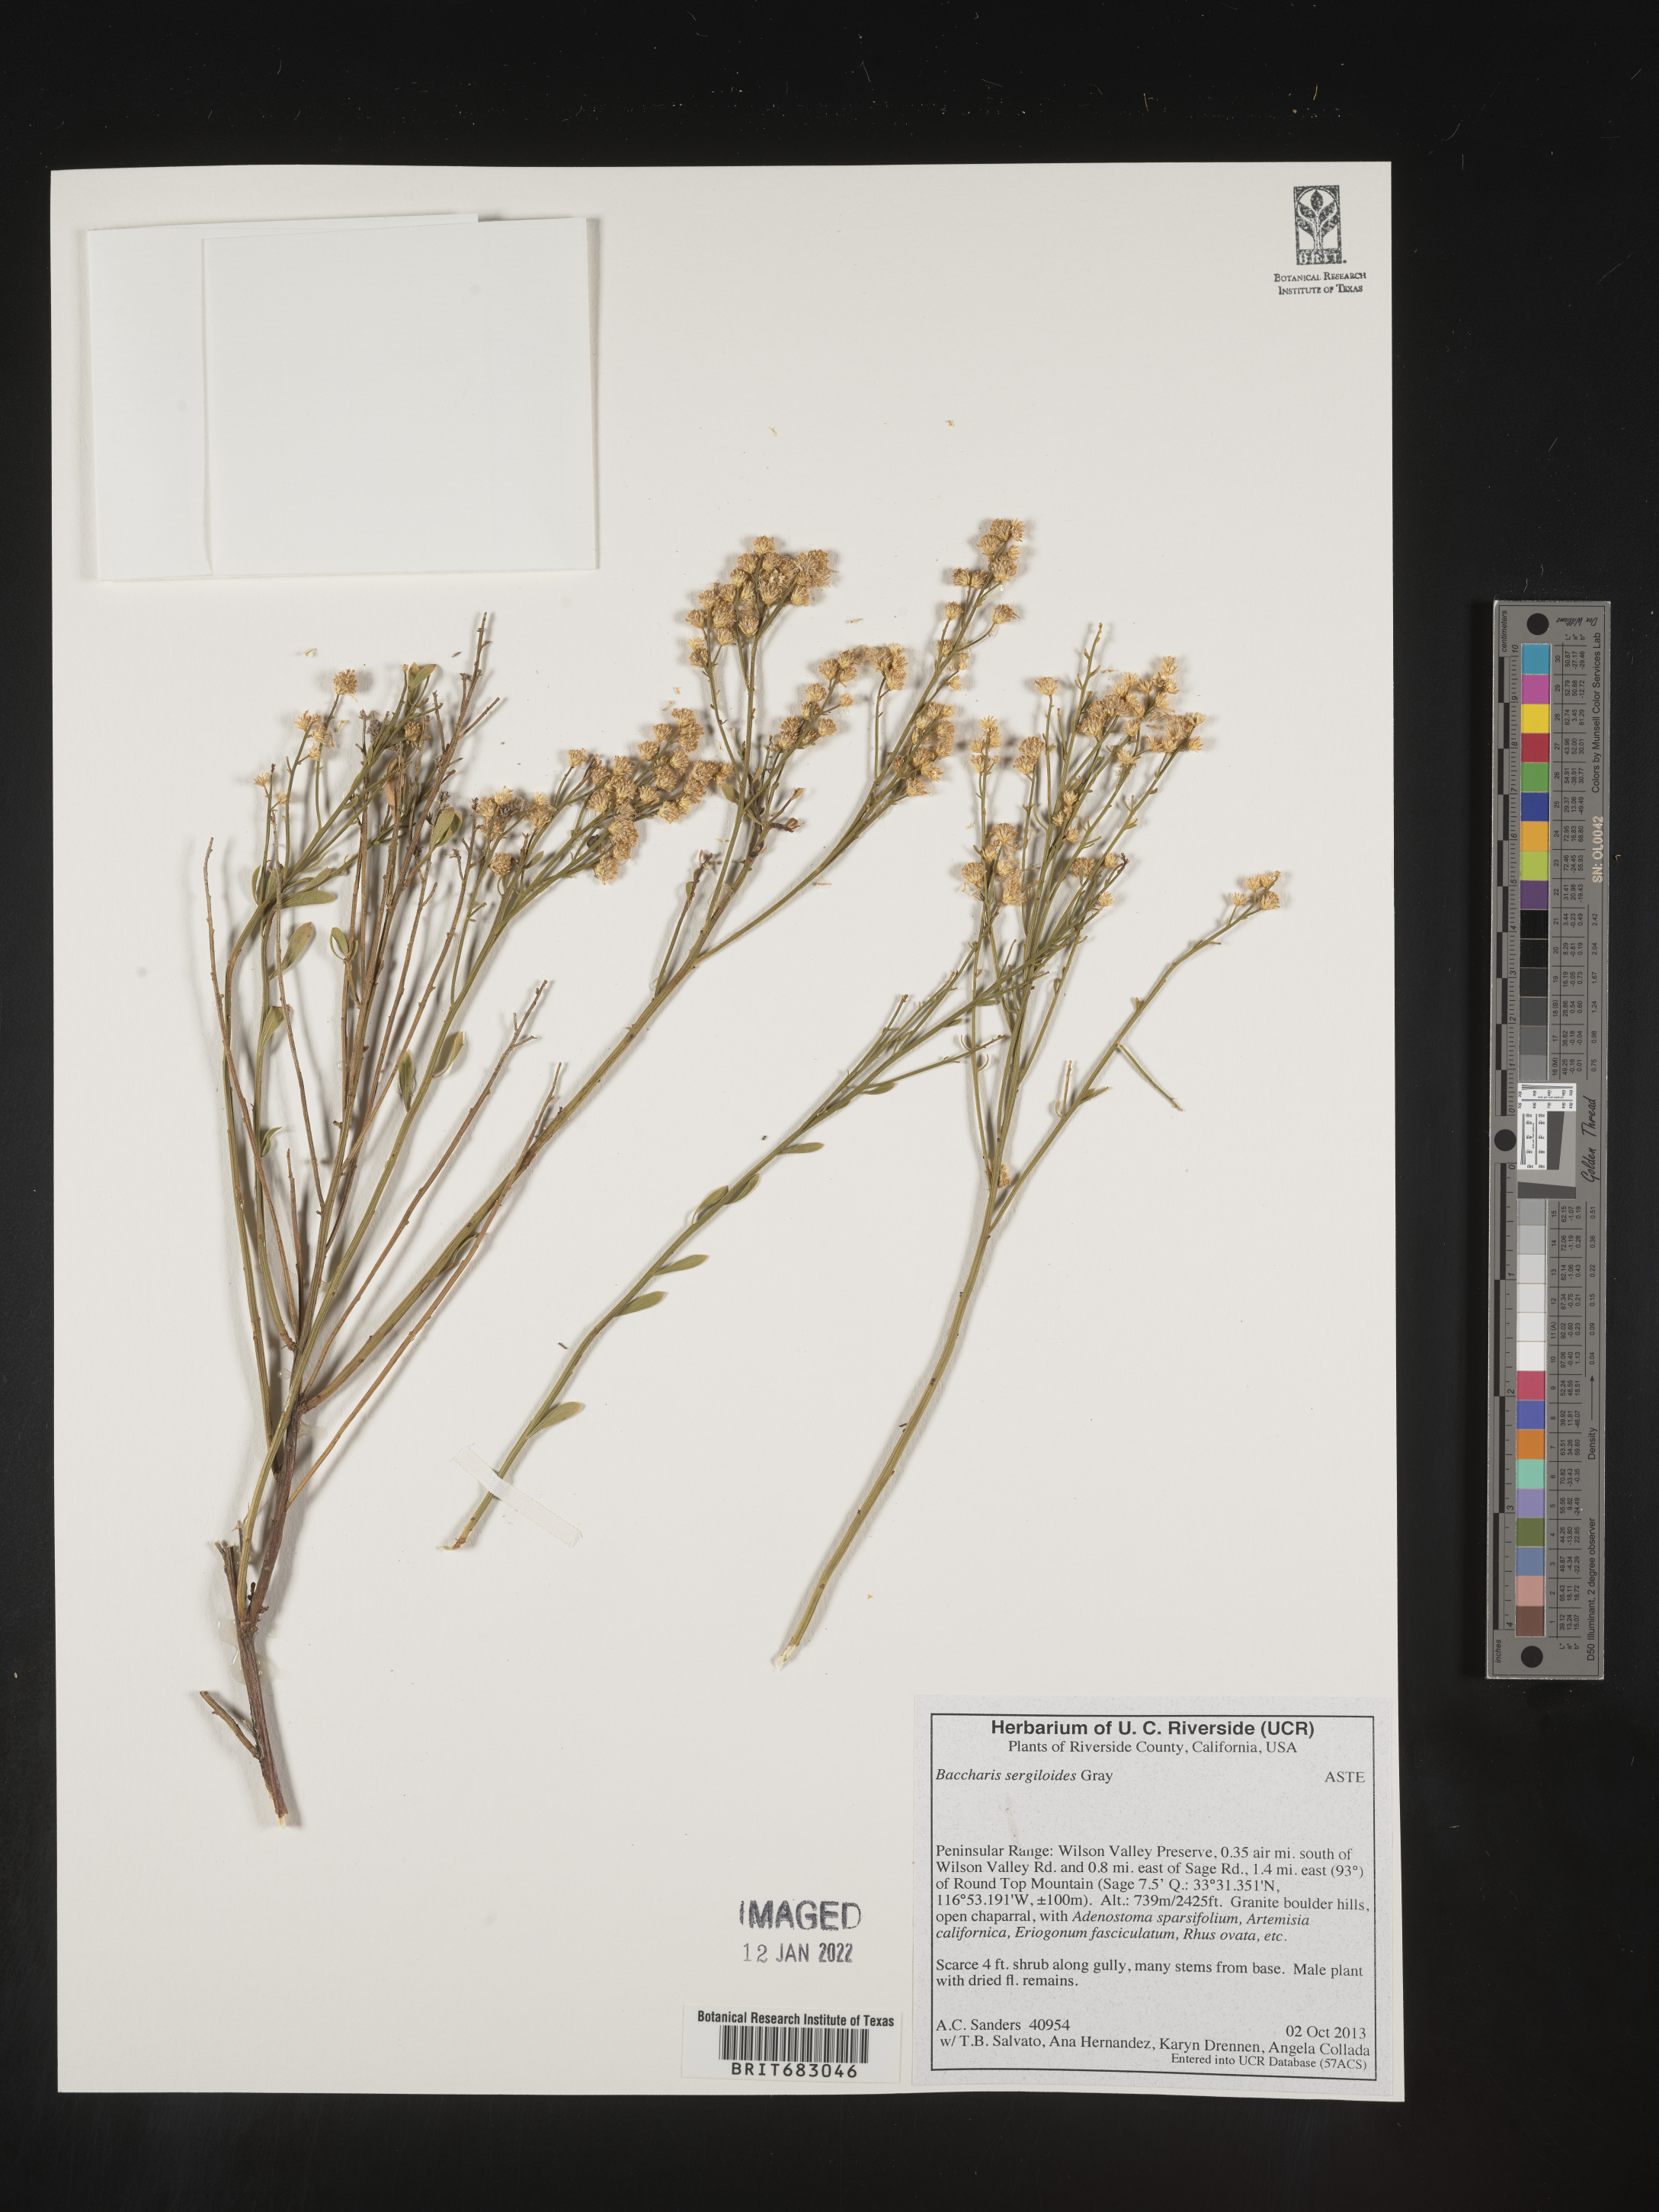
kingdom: Plantae
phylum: Tracheophyta
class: Magnoliopsida
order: Asterales
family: Asteraceae
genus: Baccharis
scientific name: Baccharis sergiloides
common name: Desert baccharis
